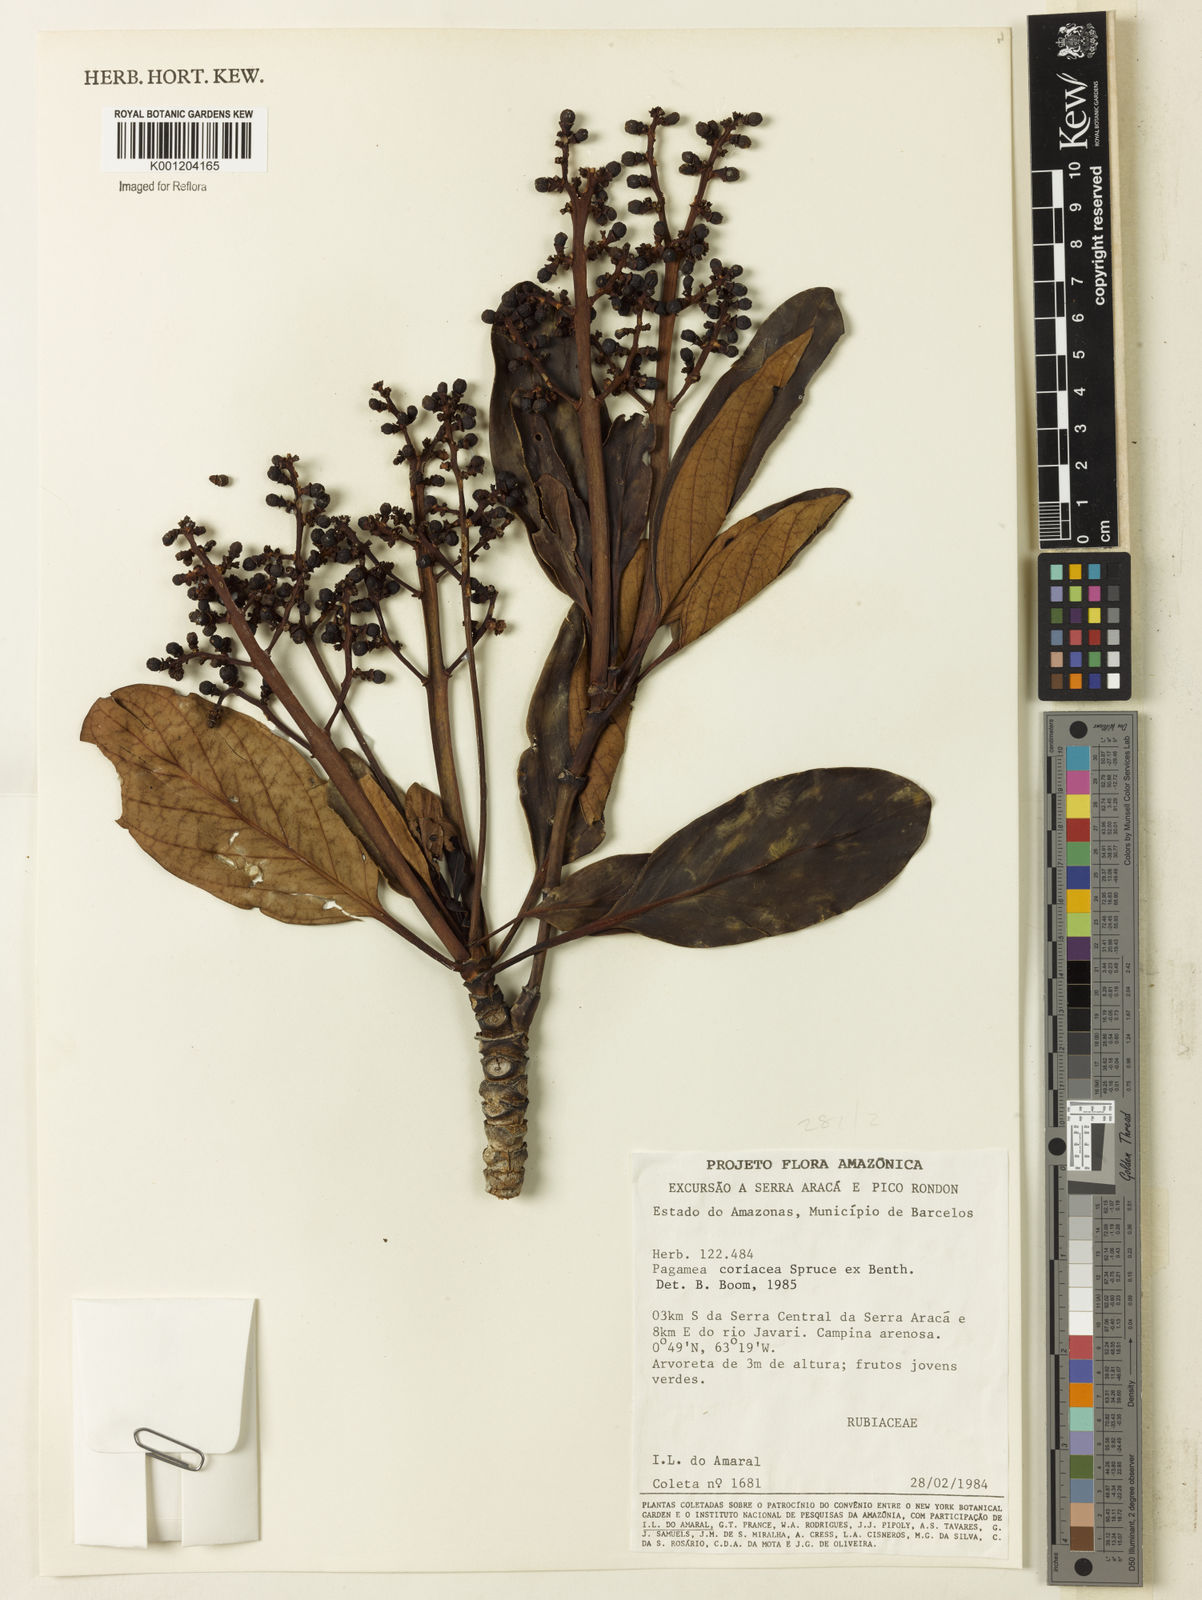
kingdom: Plantae
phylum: Tracheophyta
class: Magnoliopsida
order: Gentianales
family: Rubiaceae
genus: Pagamea
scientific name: Pagamea coriacea
